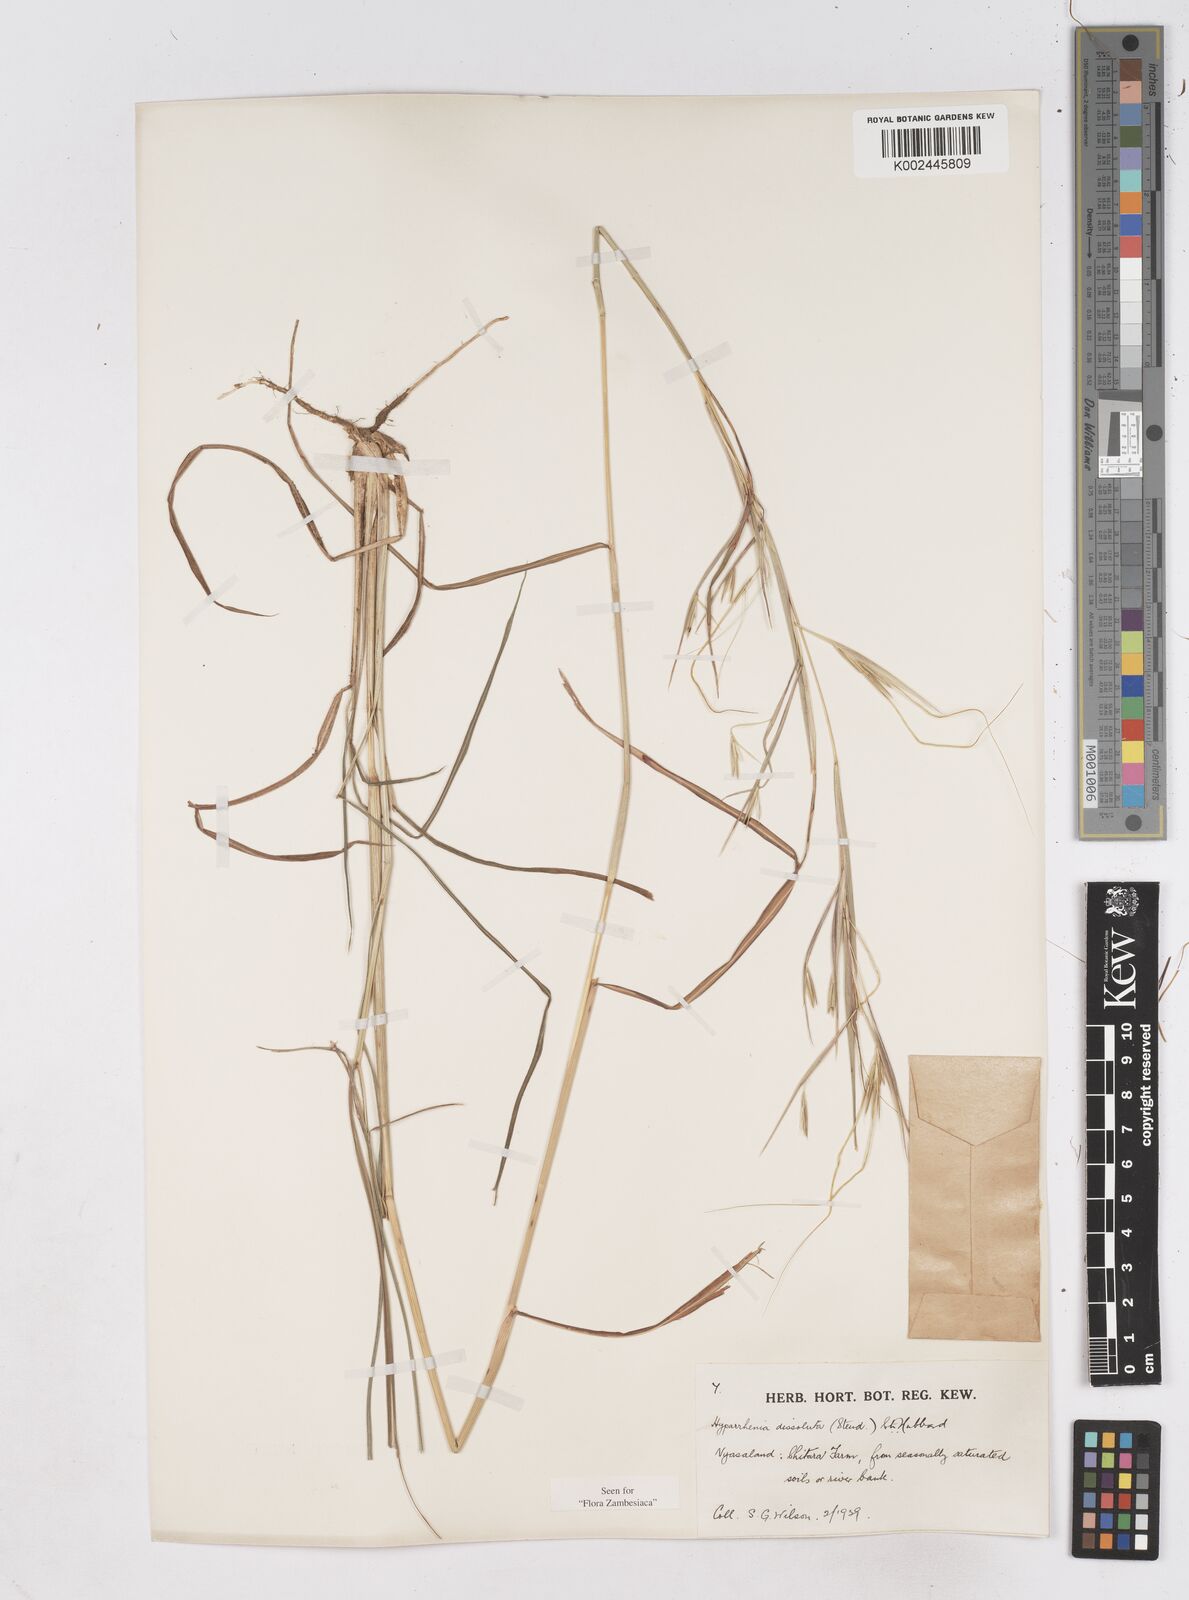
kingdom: Plantae
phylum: Tracheophyta
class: Liliopsida
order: Poales
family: Poaceae
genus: Hyperthelia
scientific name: Hyperthelia dissoluta
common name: Yellow thatching grass
